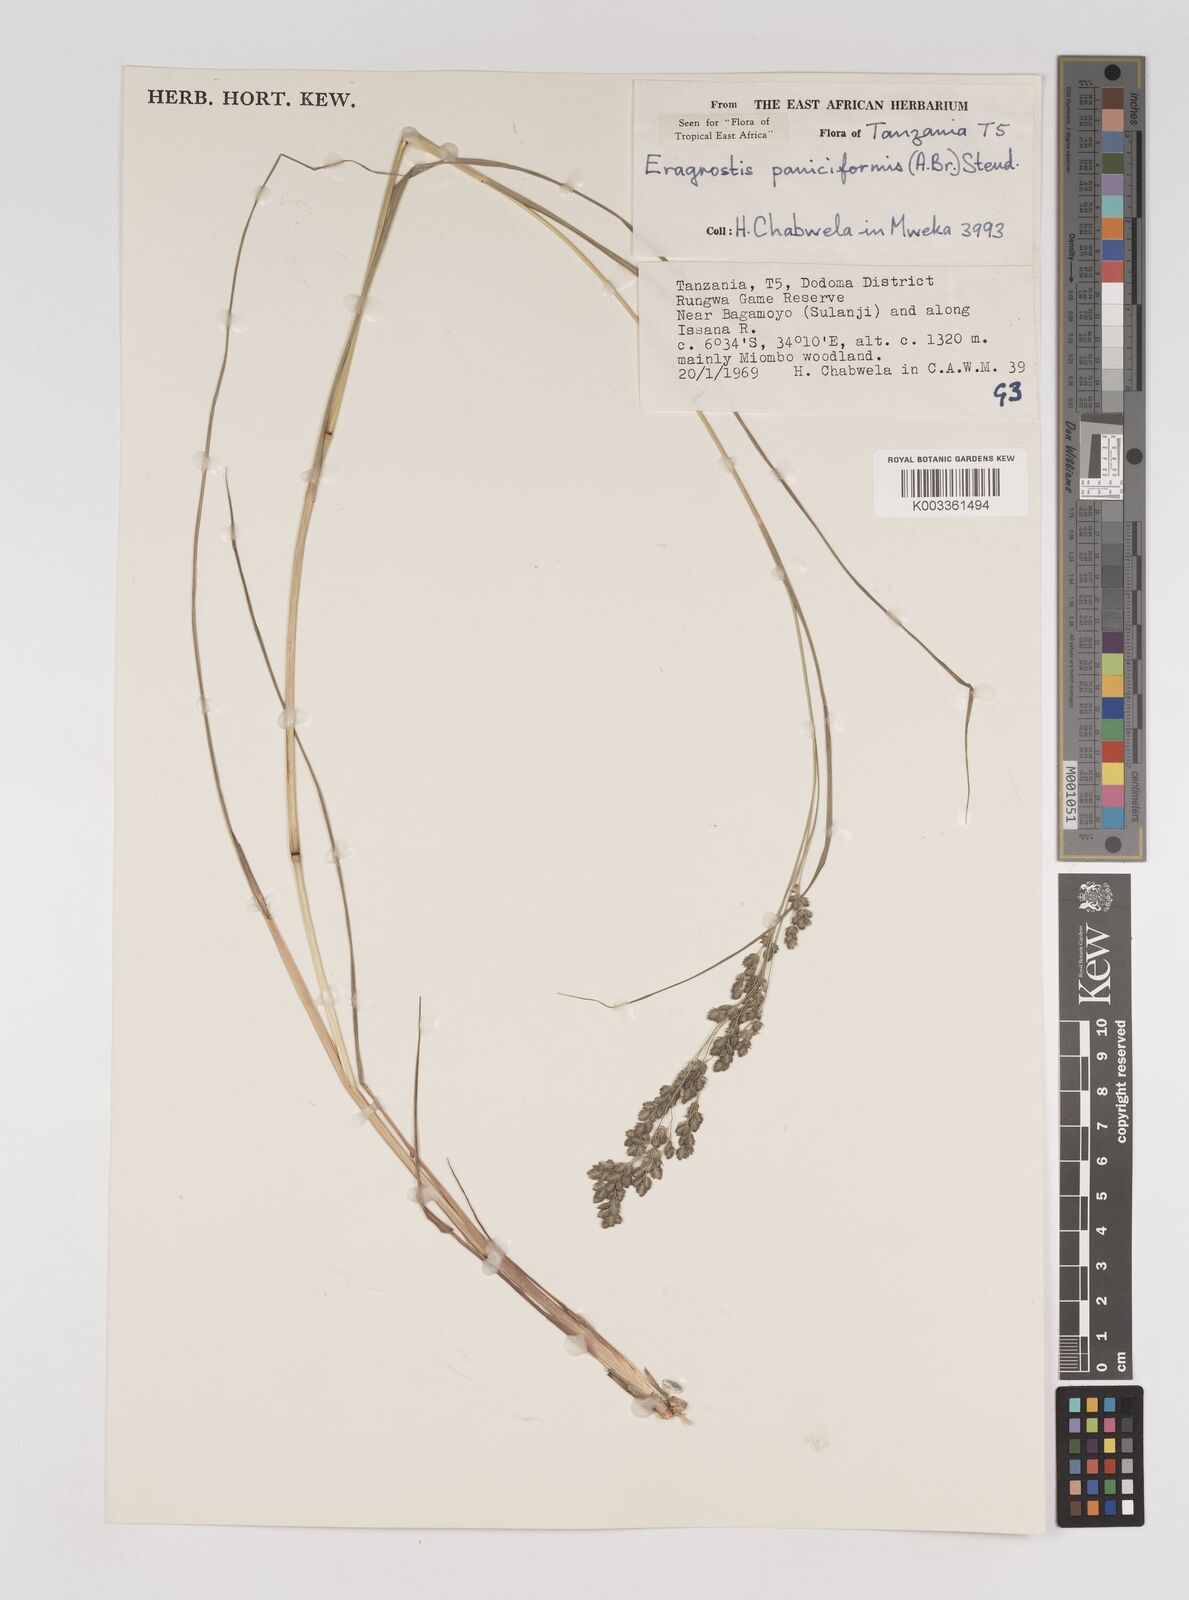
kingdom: Plantae
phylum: Tracheophyta
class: Liliopsida
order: Poales
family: Poaceae
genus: Eragrostis
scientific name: Eragrostis paniciformis
